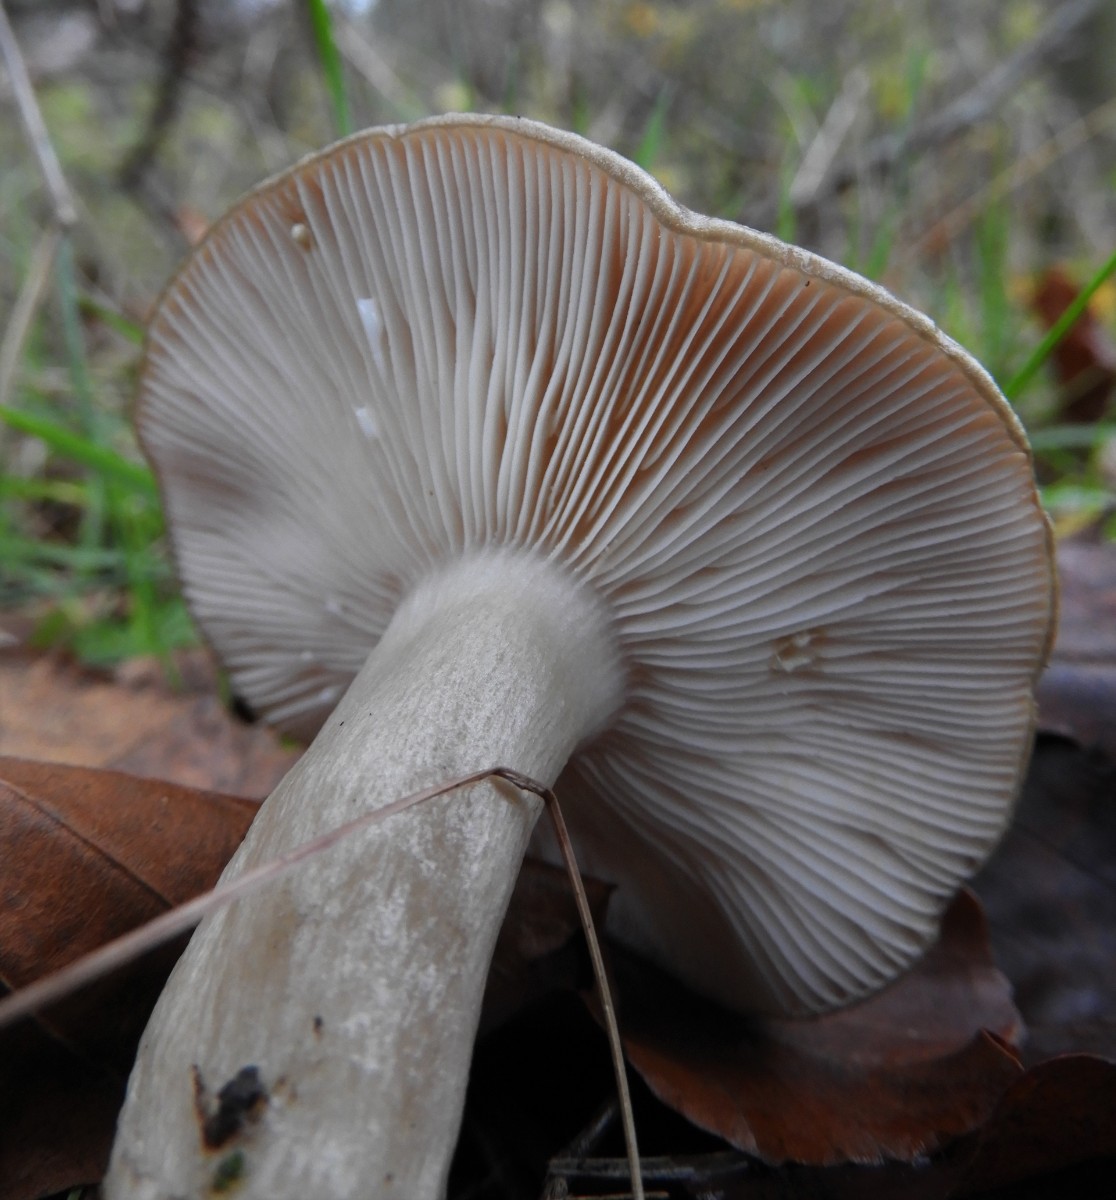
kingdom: Fungi
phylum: Basidiomycota
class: Agaricomycetes
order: Russulales
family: Russulaceae
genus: Lactarius
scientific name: Lactarius blennius
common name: dråbeplettet mælkehat
